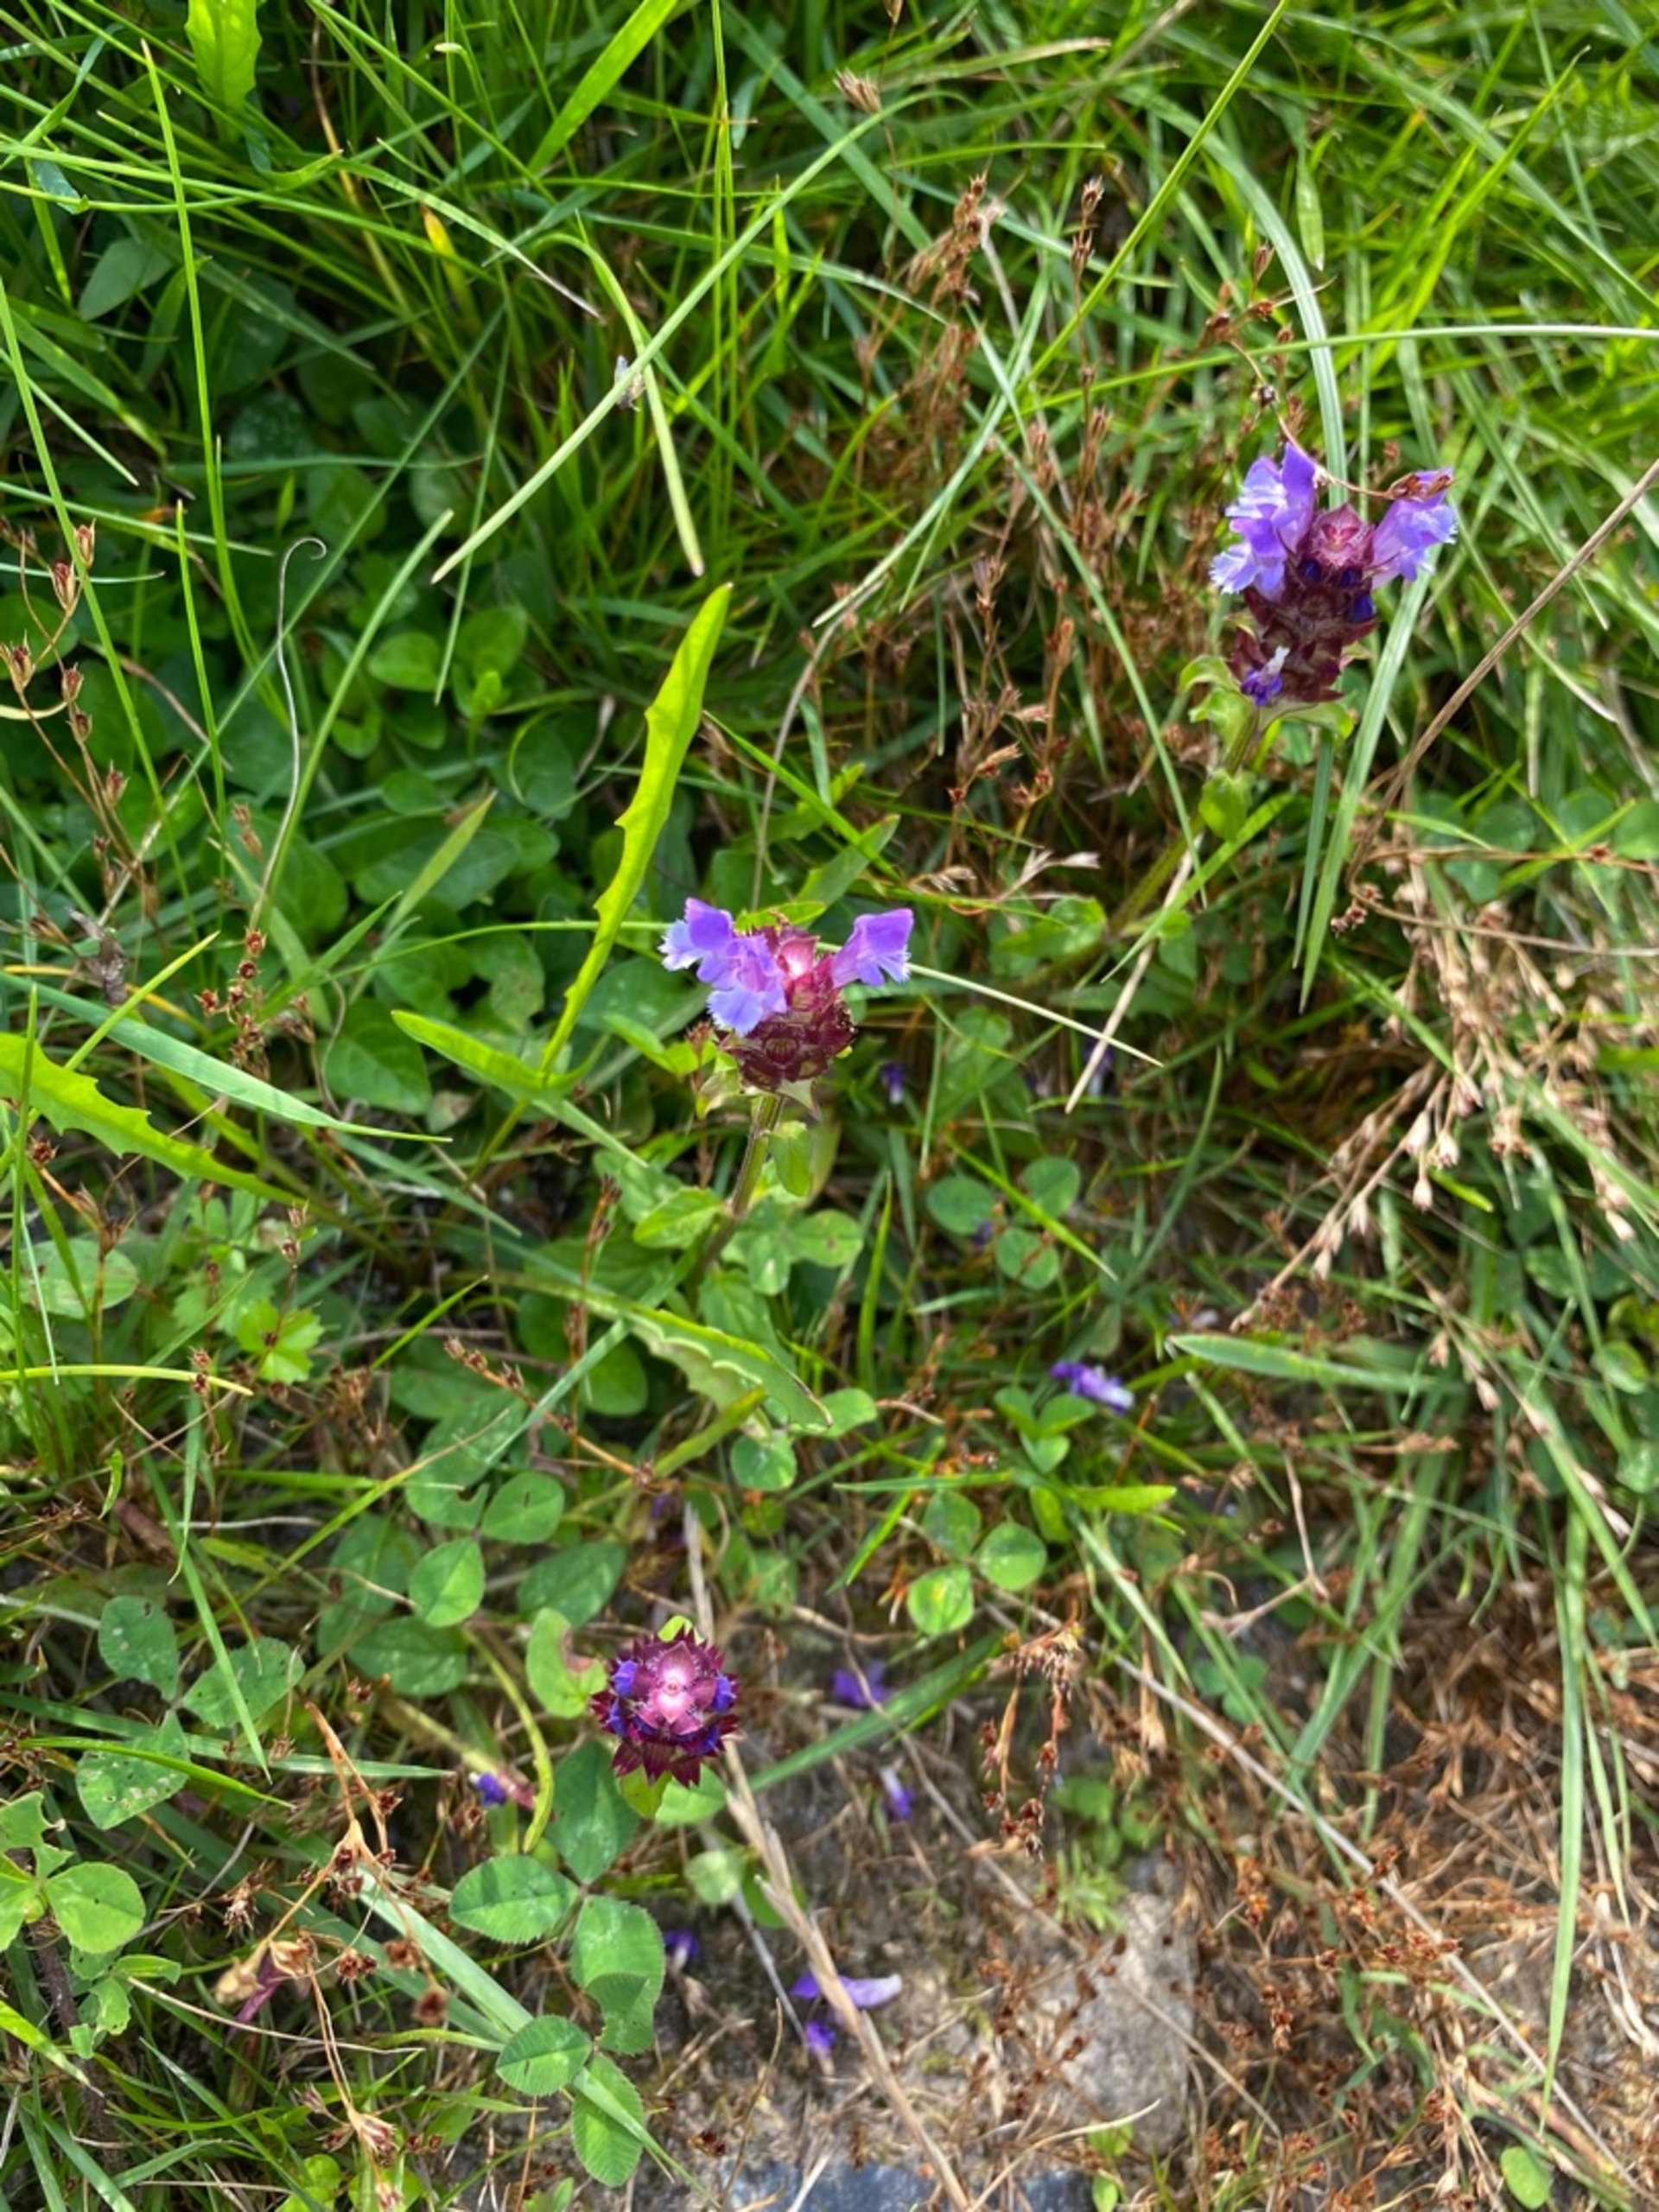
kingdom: Plantae
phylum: Tracheophyta
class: Magnoliopsida
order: Lamiales
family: Lamiaceae
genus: Prunella
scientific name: Prunella vulgaris
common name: Almindelig brunelle
